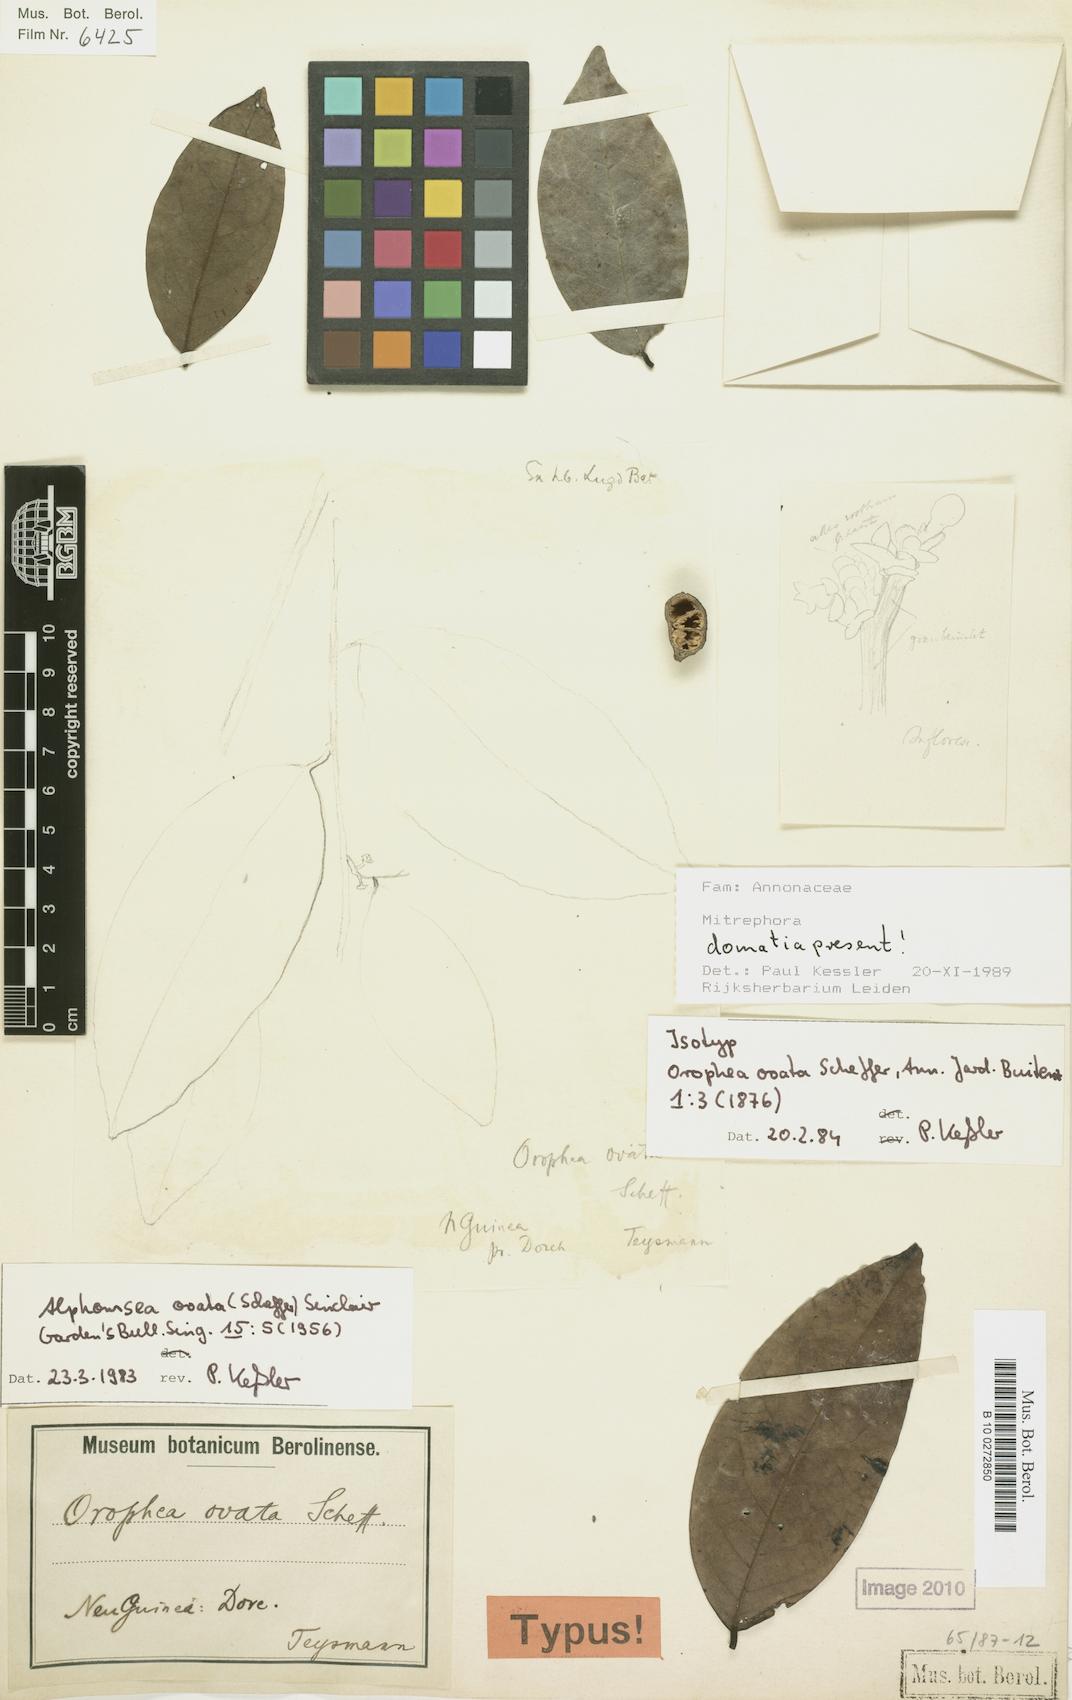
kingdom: Plantae
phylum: Tracheophyta
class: Magnoliopsida
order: Magnoliales
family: Annonaceae
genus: Alphonsea
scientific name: Alphonsea ovata
